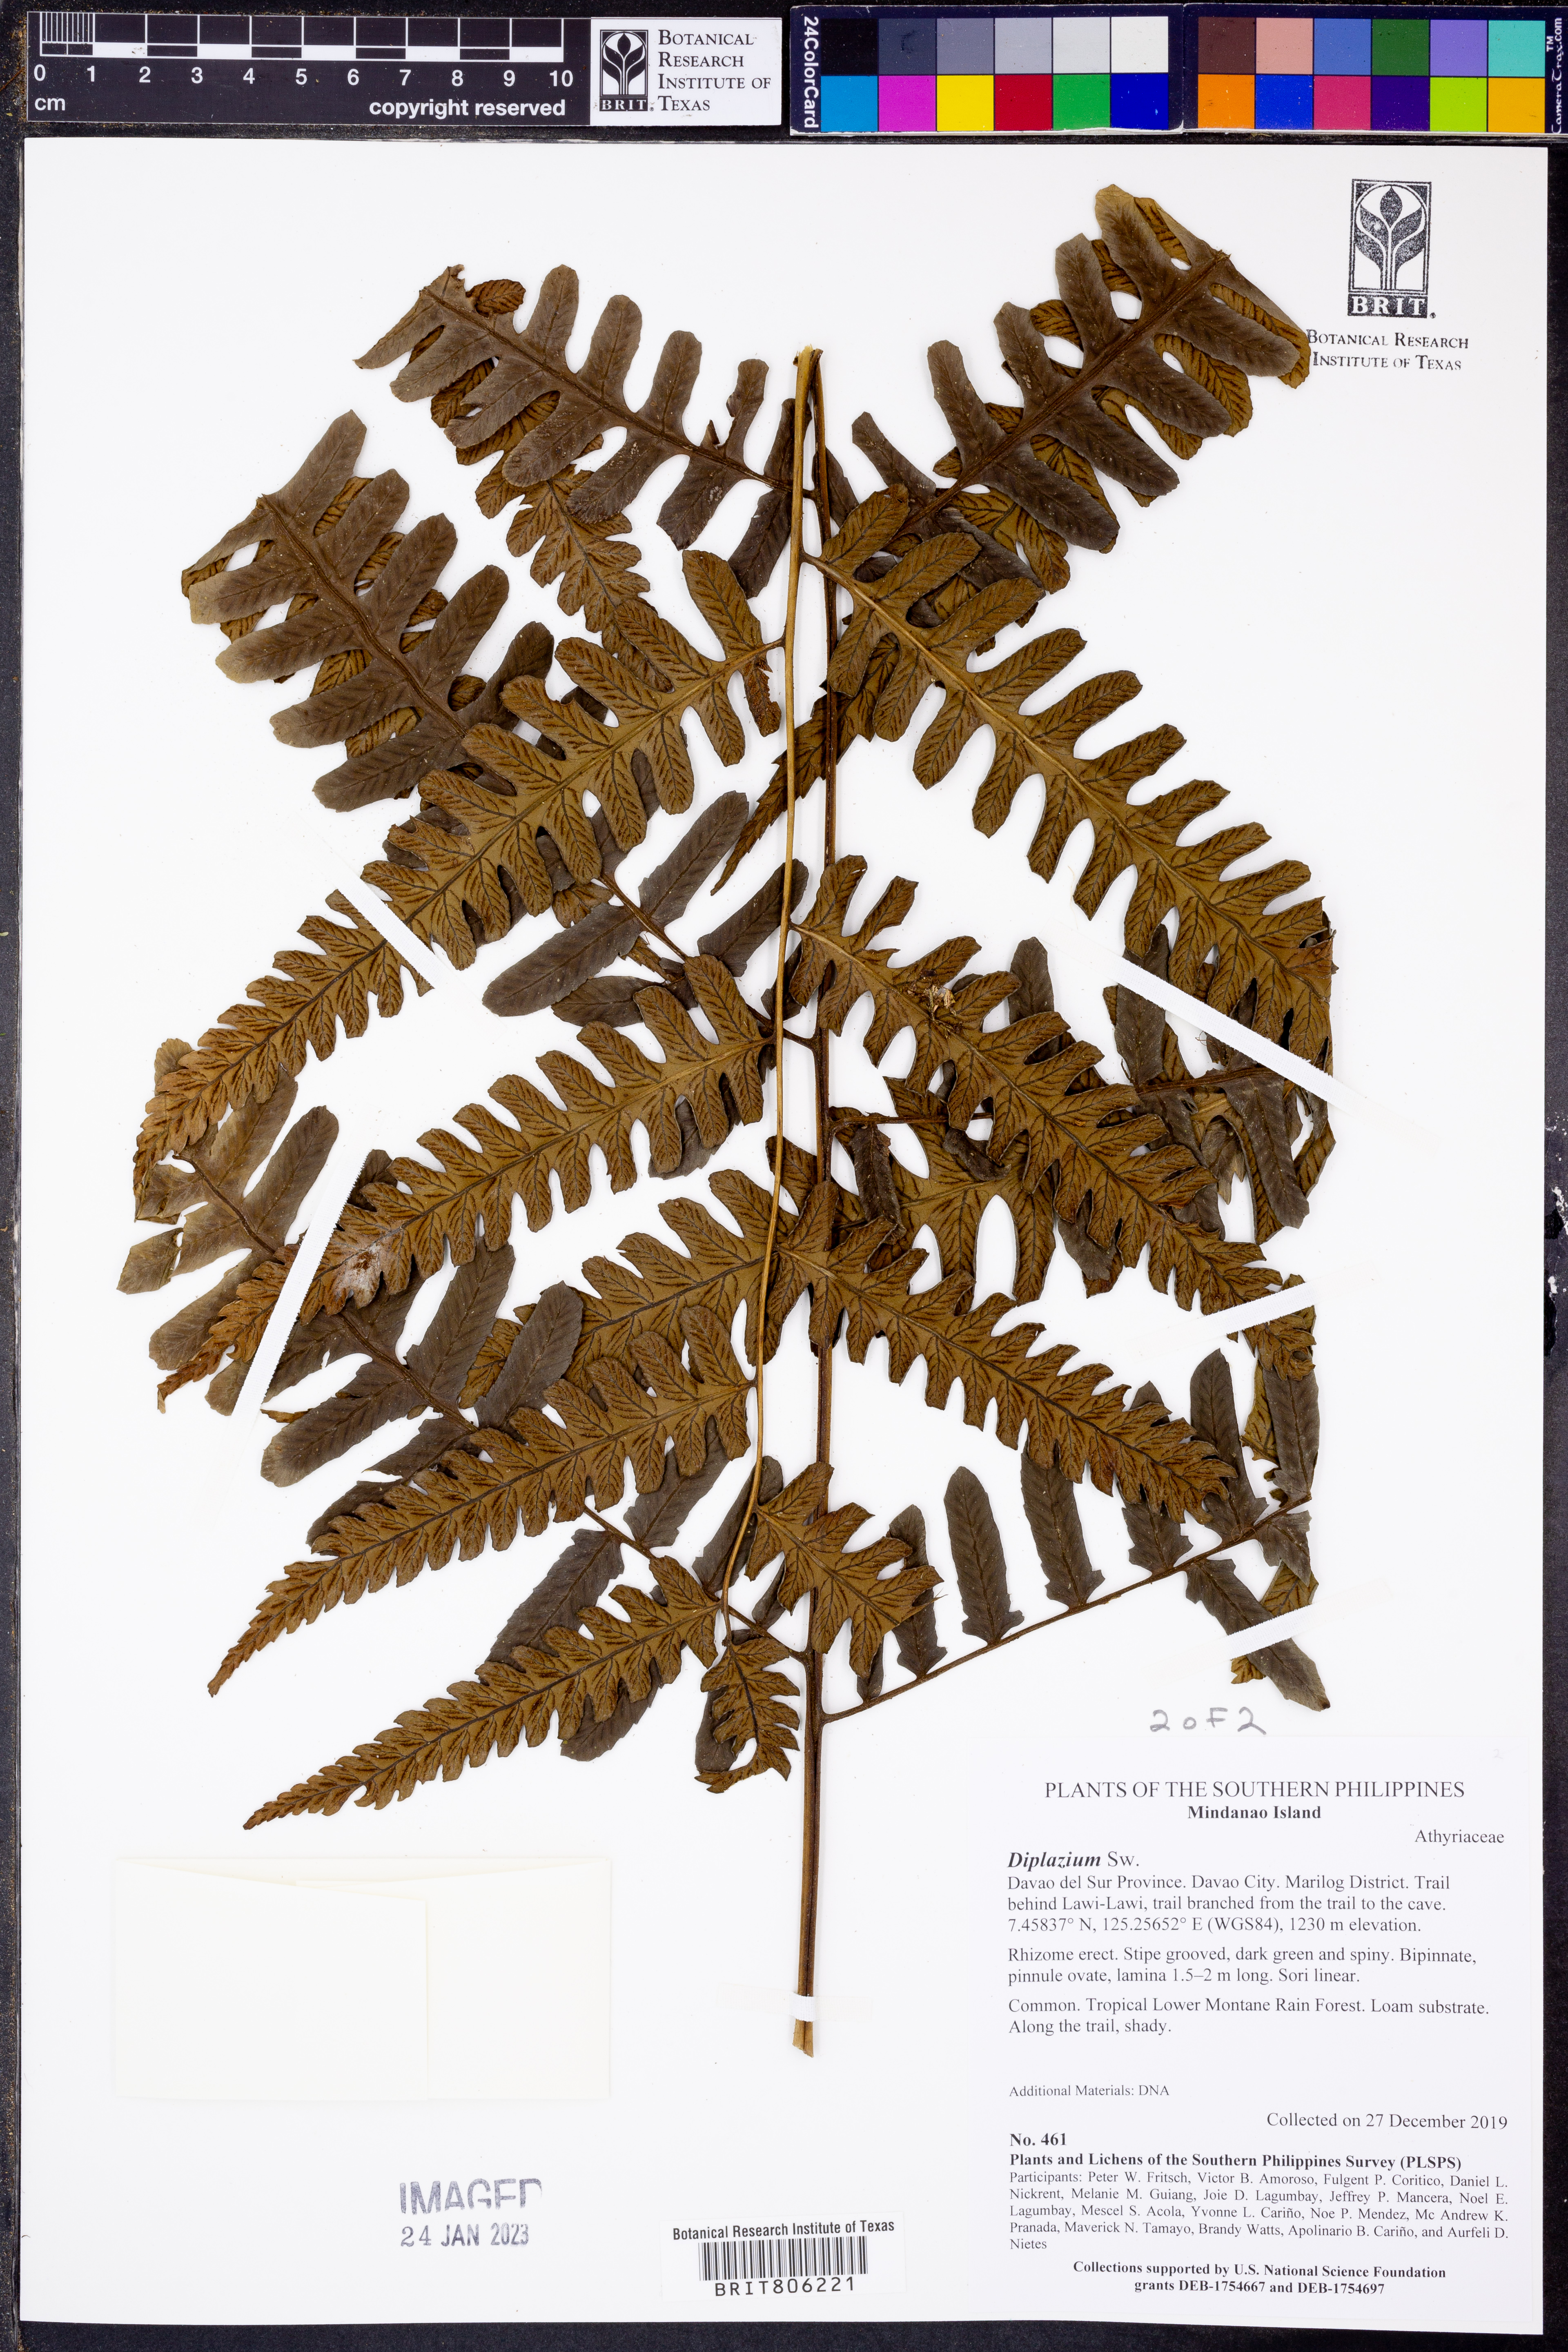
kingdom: Plantae
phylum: Tracheophyta
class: Polypodiopsida
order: Polypodiales
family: Athyriaceae
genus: Diplazium
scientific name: Diplazium
